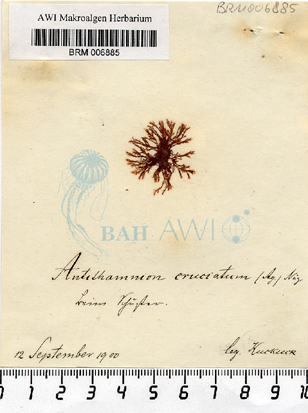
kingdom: Plantae
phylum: Rhodophyta
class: Florideophyceae
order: Ceramiales
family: Ceramiaceae
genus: Antithamnion
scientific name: Antithamnion cruciatum
